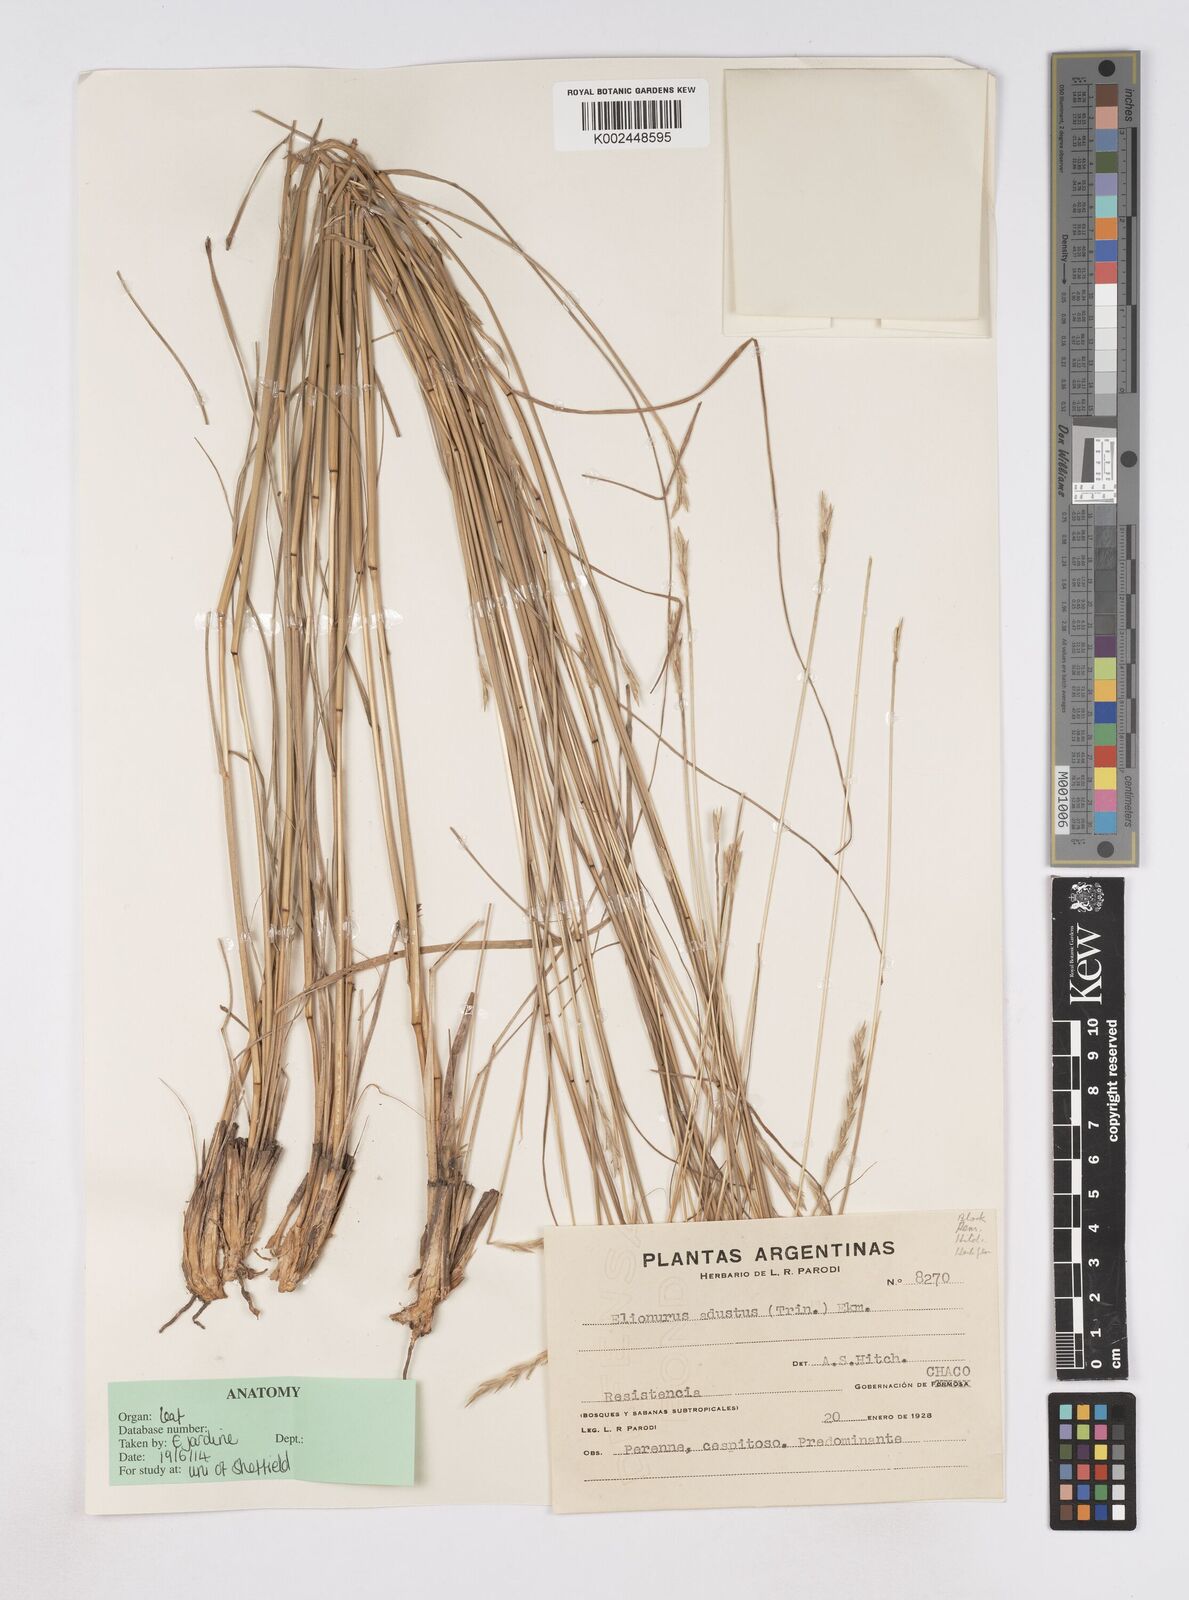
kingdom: Plantae
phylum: Tracheophyta
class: Liliopsida
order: Poales
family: Poaceae
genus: Elionurus
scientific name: Elionurus muticus
